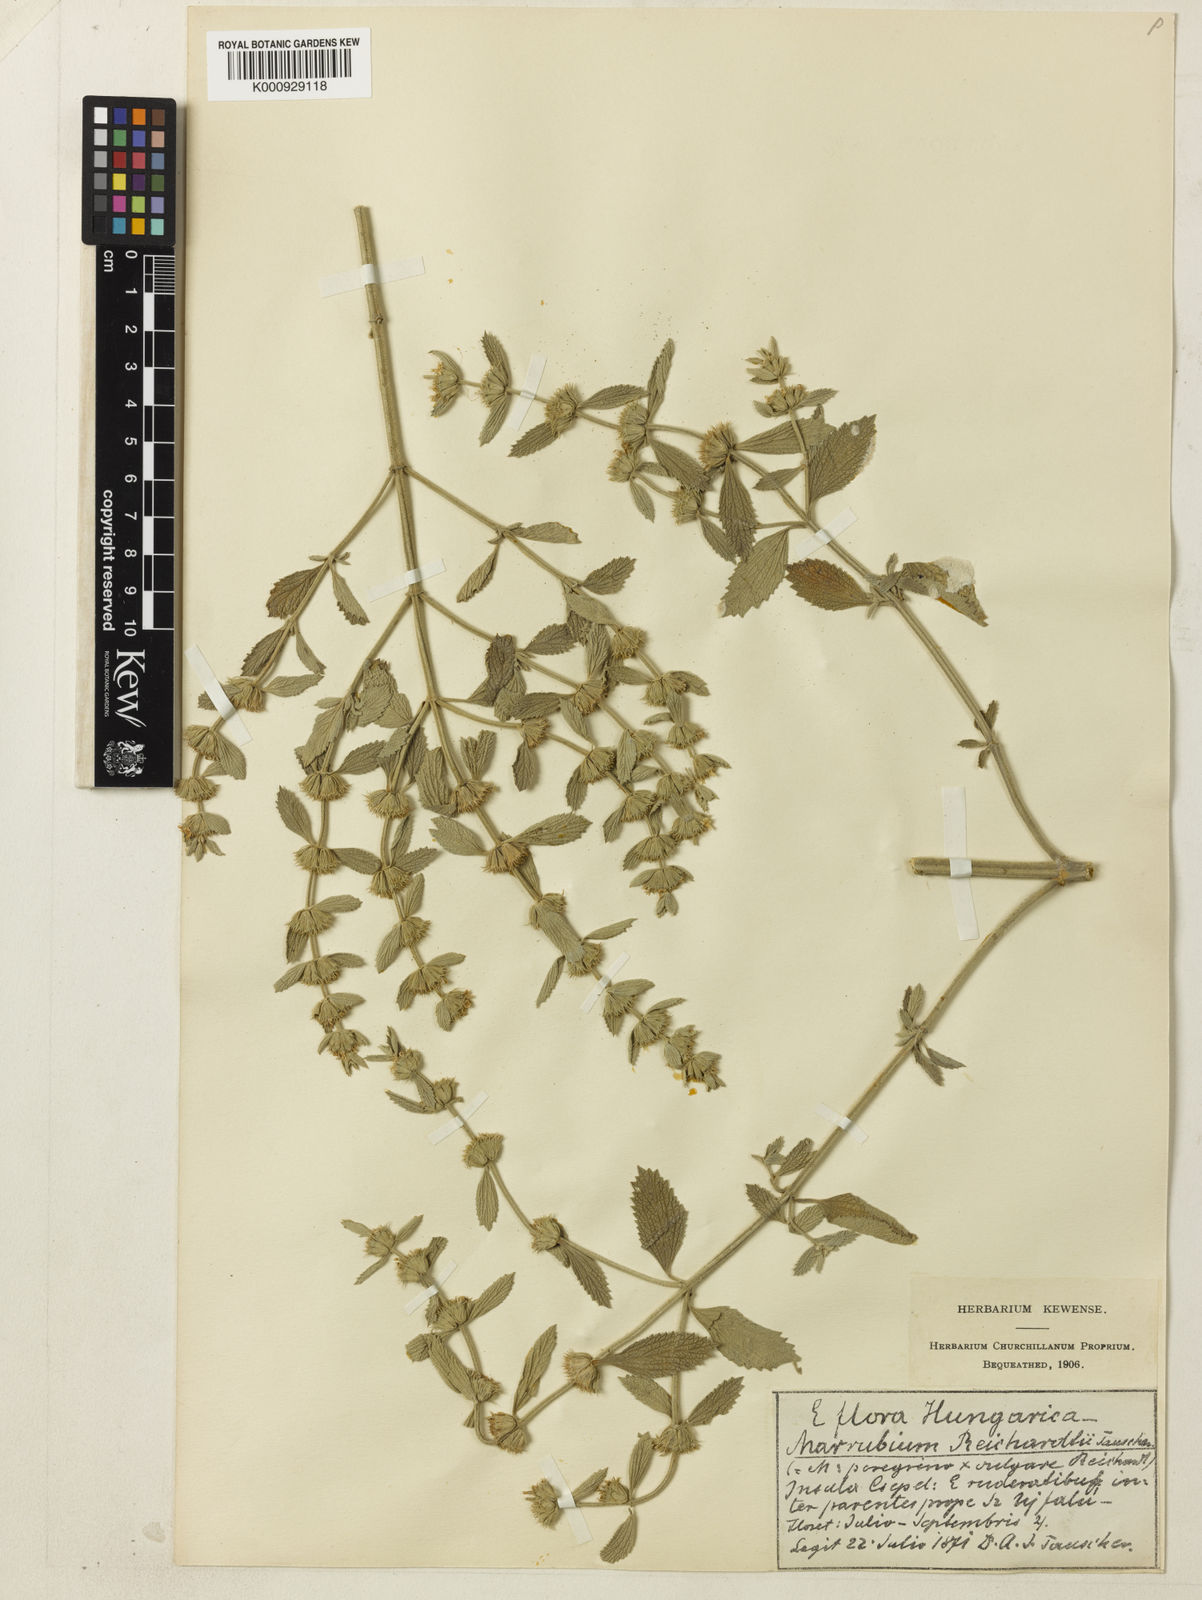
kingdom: Plantae
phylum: Tracheophyta
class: Magnoliopsida
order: Lamiales
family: Lamiaceae
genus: Marrubium
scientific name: Marrubium
